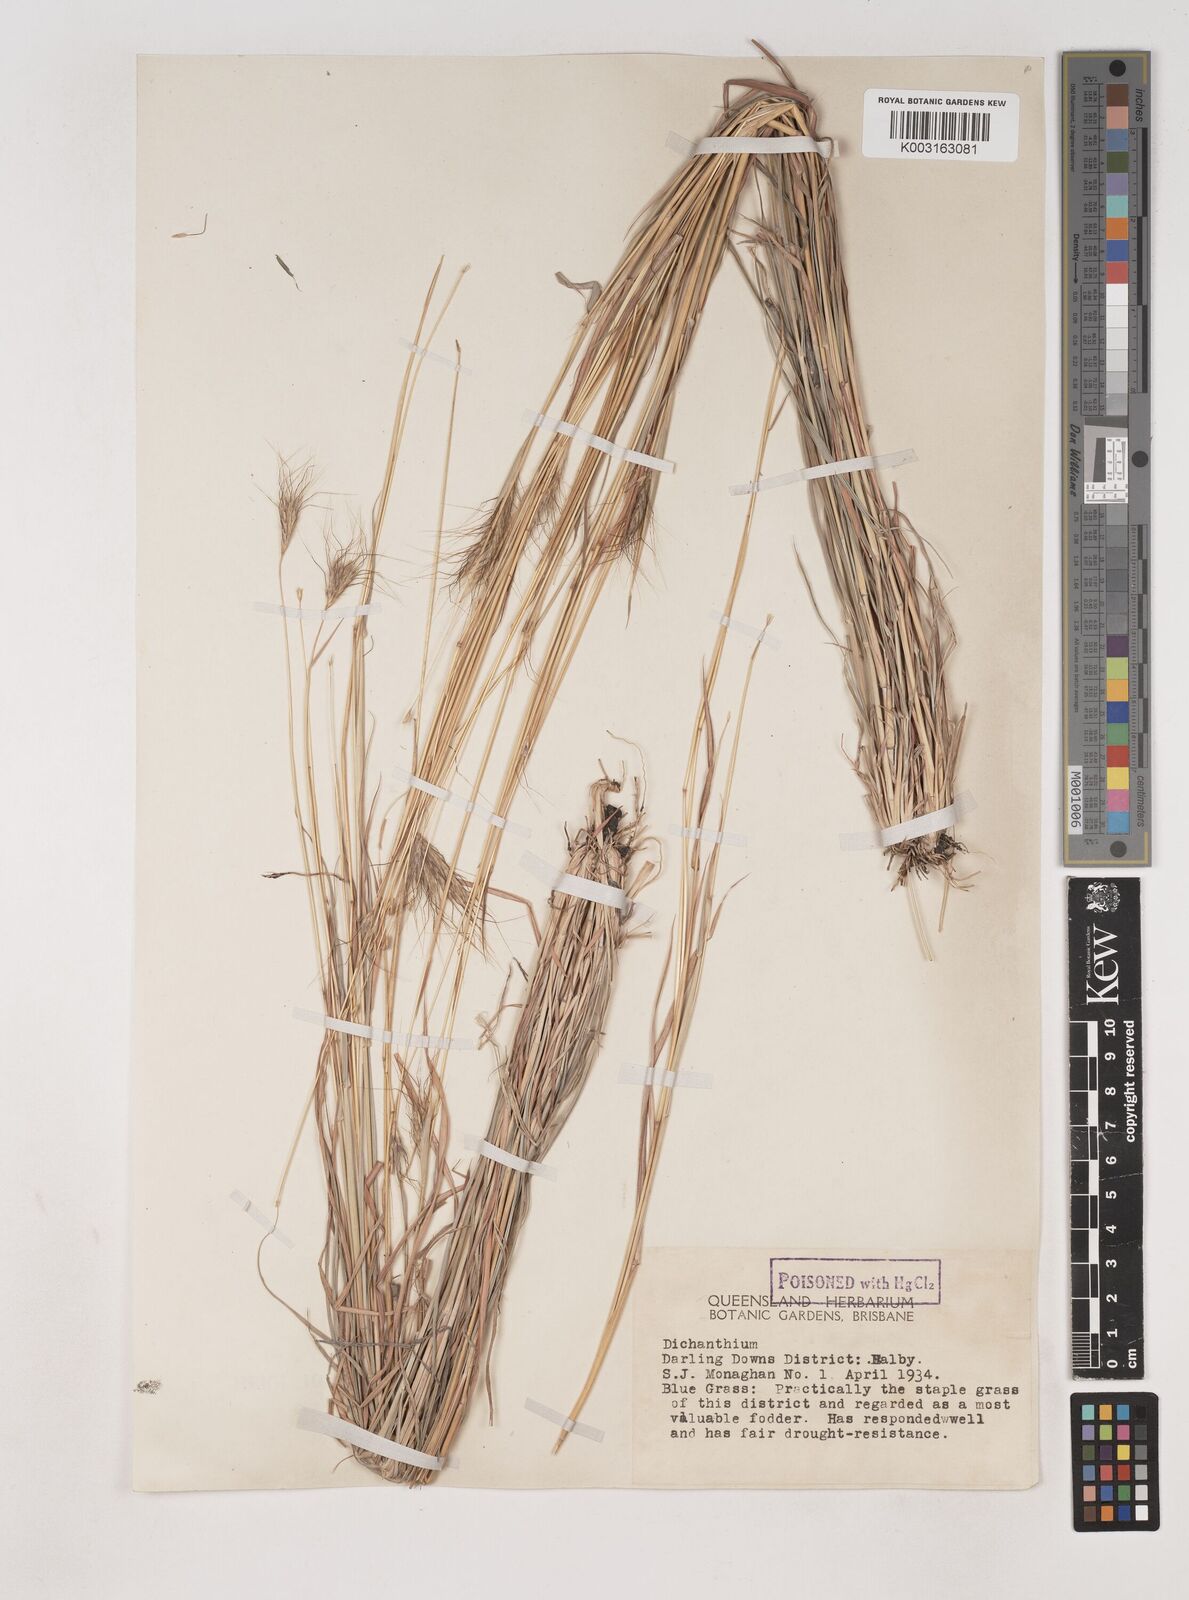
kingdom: Plantae
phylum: Tracheophyta
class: Liliopsida
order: Poales
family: Poaceae
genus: Dichanthium
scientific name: Dichanthium sericeum
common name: Silky bluestem
